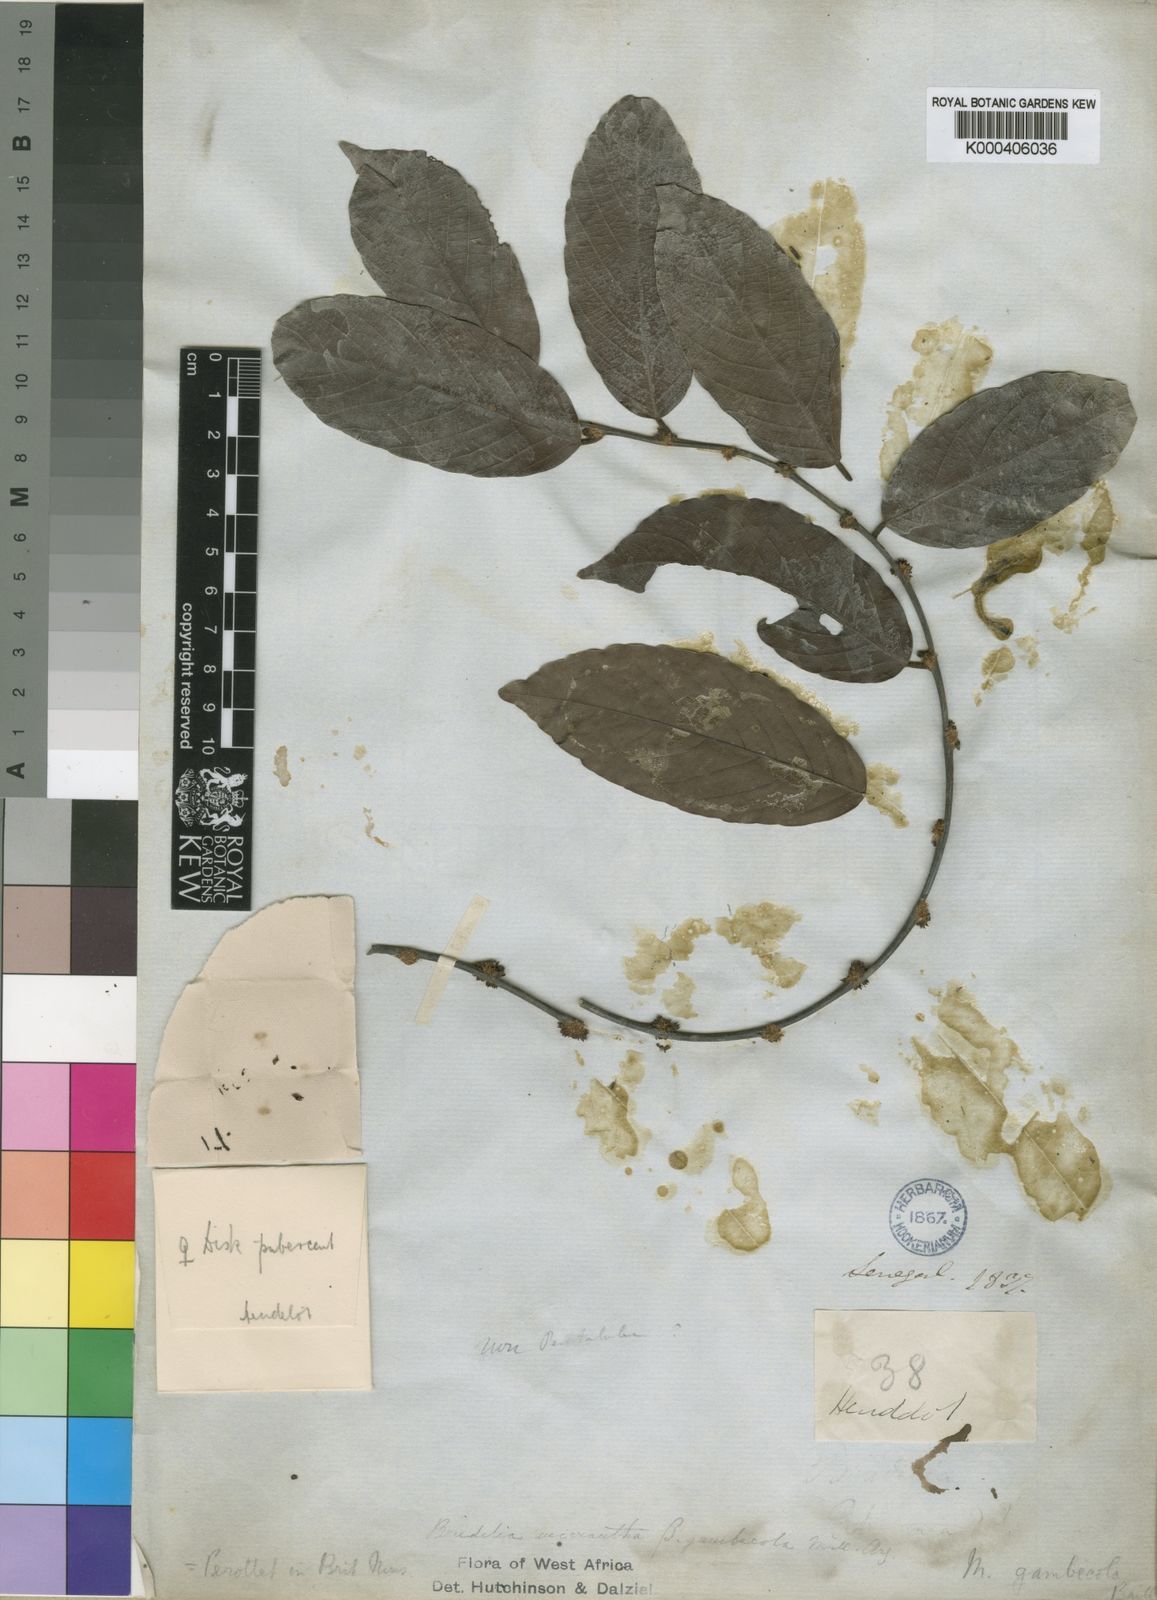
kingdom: Plantae
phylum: Tracheophyta
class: Magnoliopsida
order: Malpighiales
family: Phyllanthaceae
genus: Bridelia
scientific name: Bridelia micrantha
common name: Bridelia
